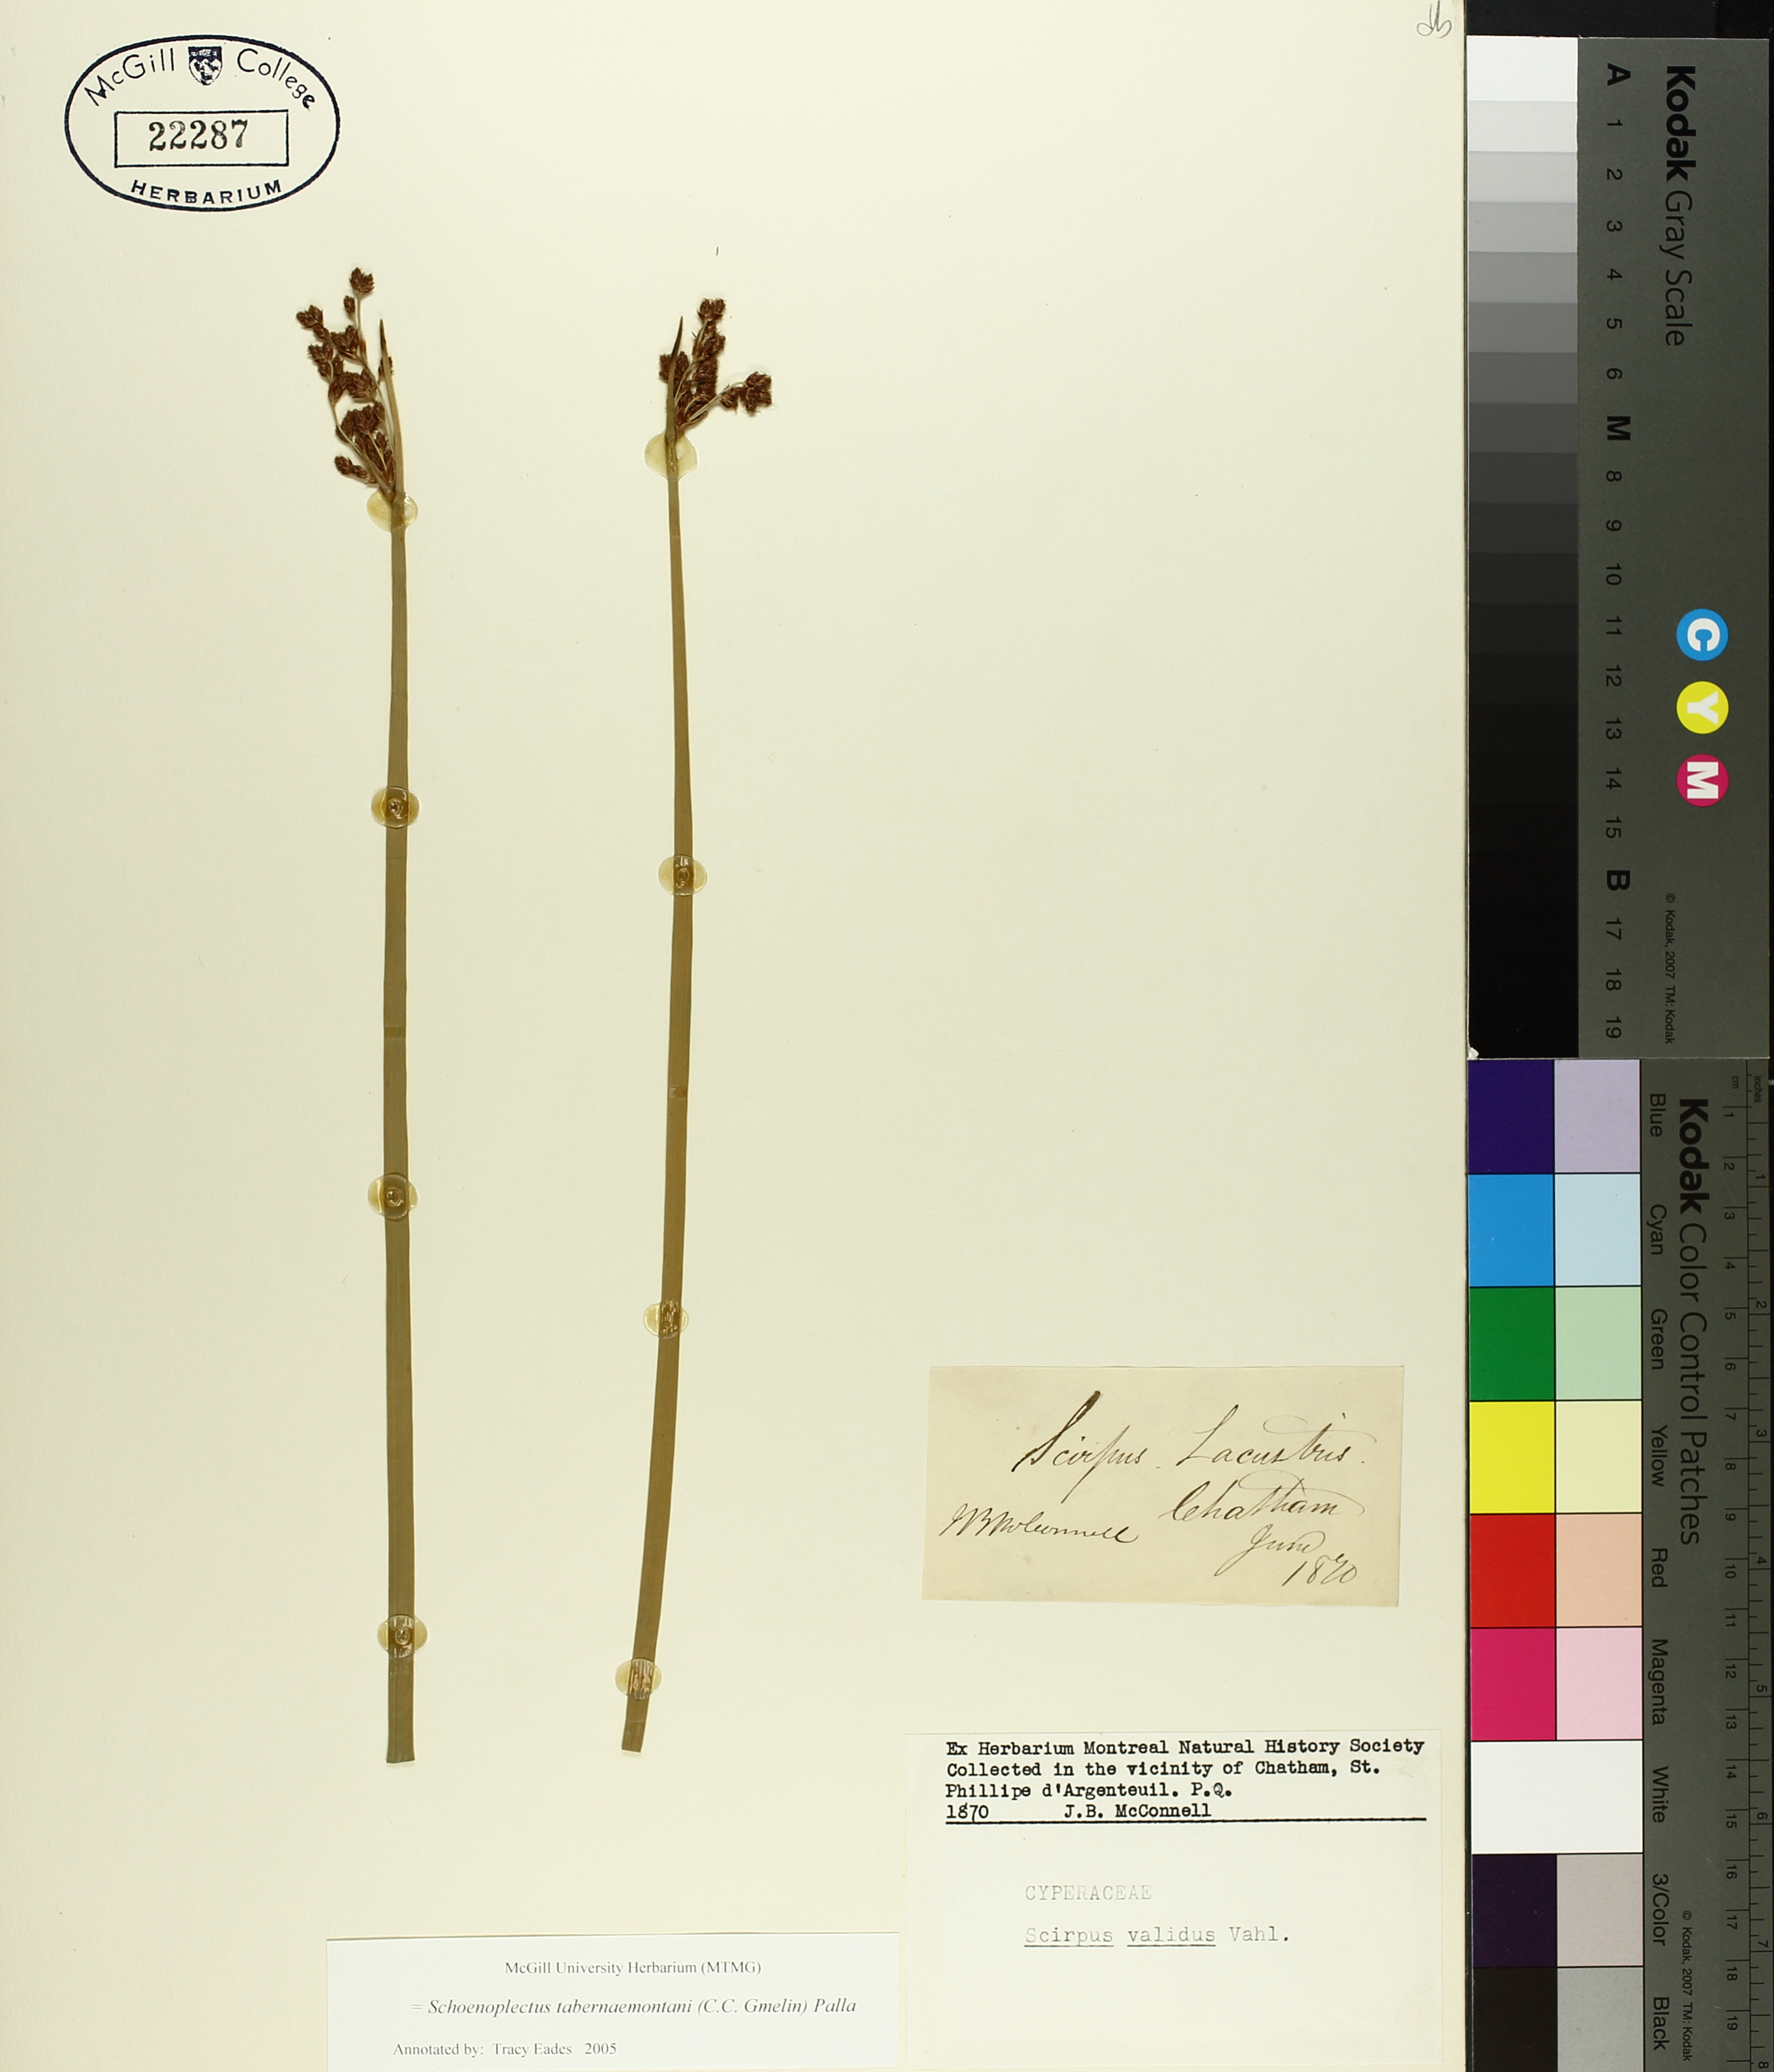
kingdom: Plantae
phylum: Tracheophyta
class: Liliopsida
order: Poales
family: Cyperaceae
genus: Schoenoplectus
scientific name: Schoenoplectus tabernaemontani
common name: Grey club-rush
